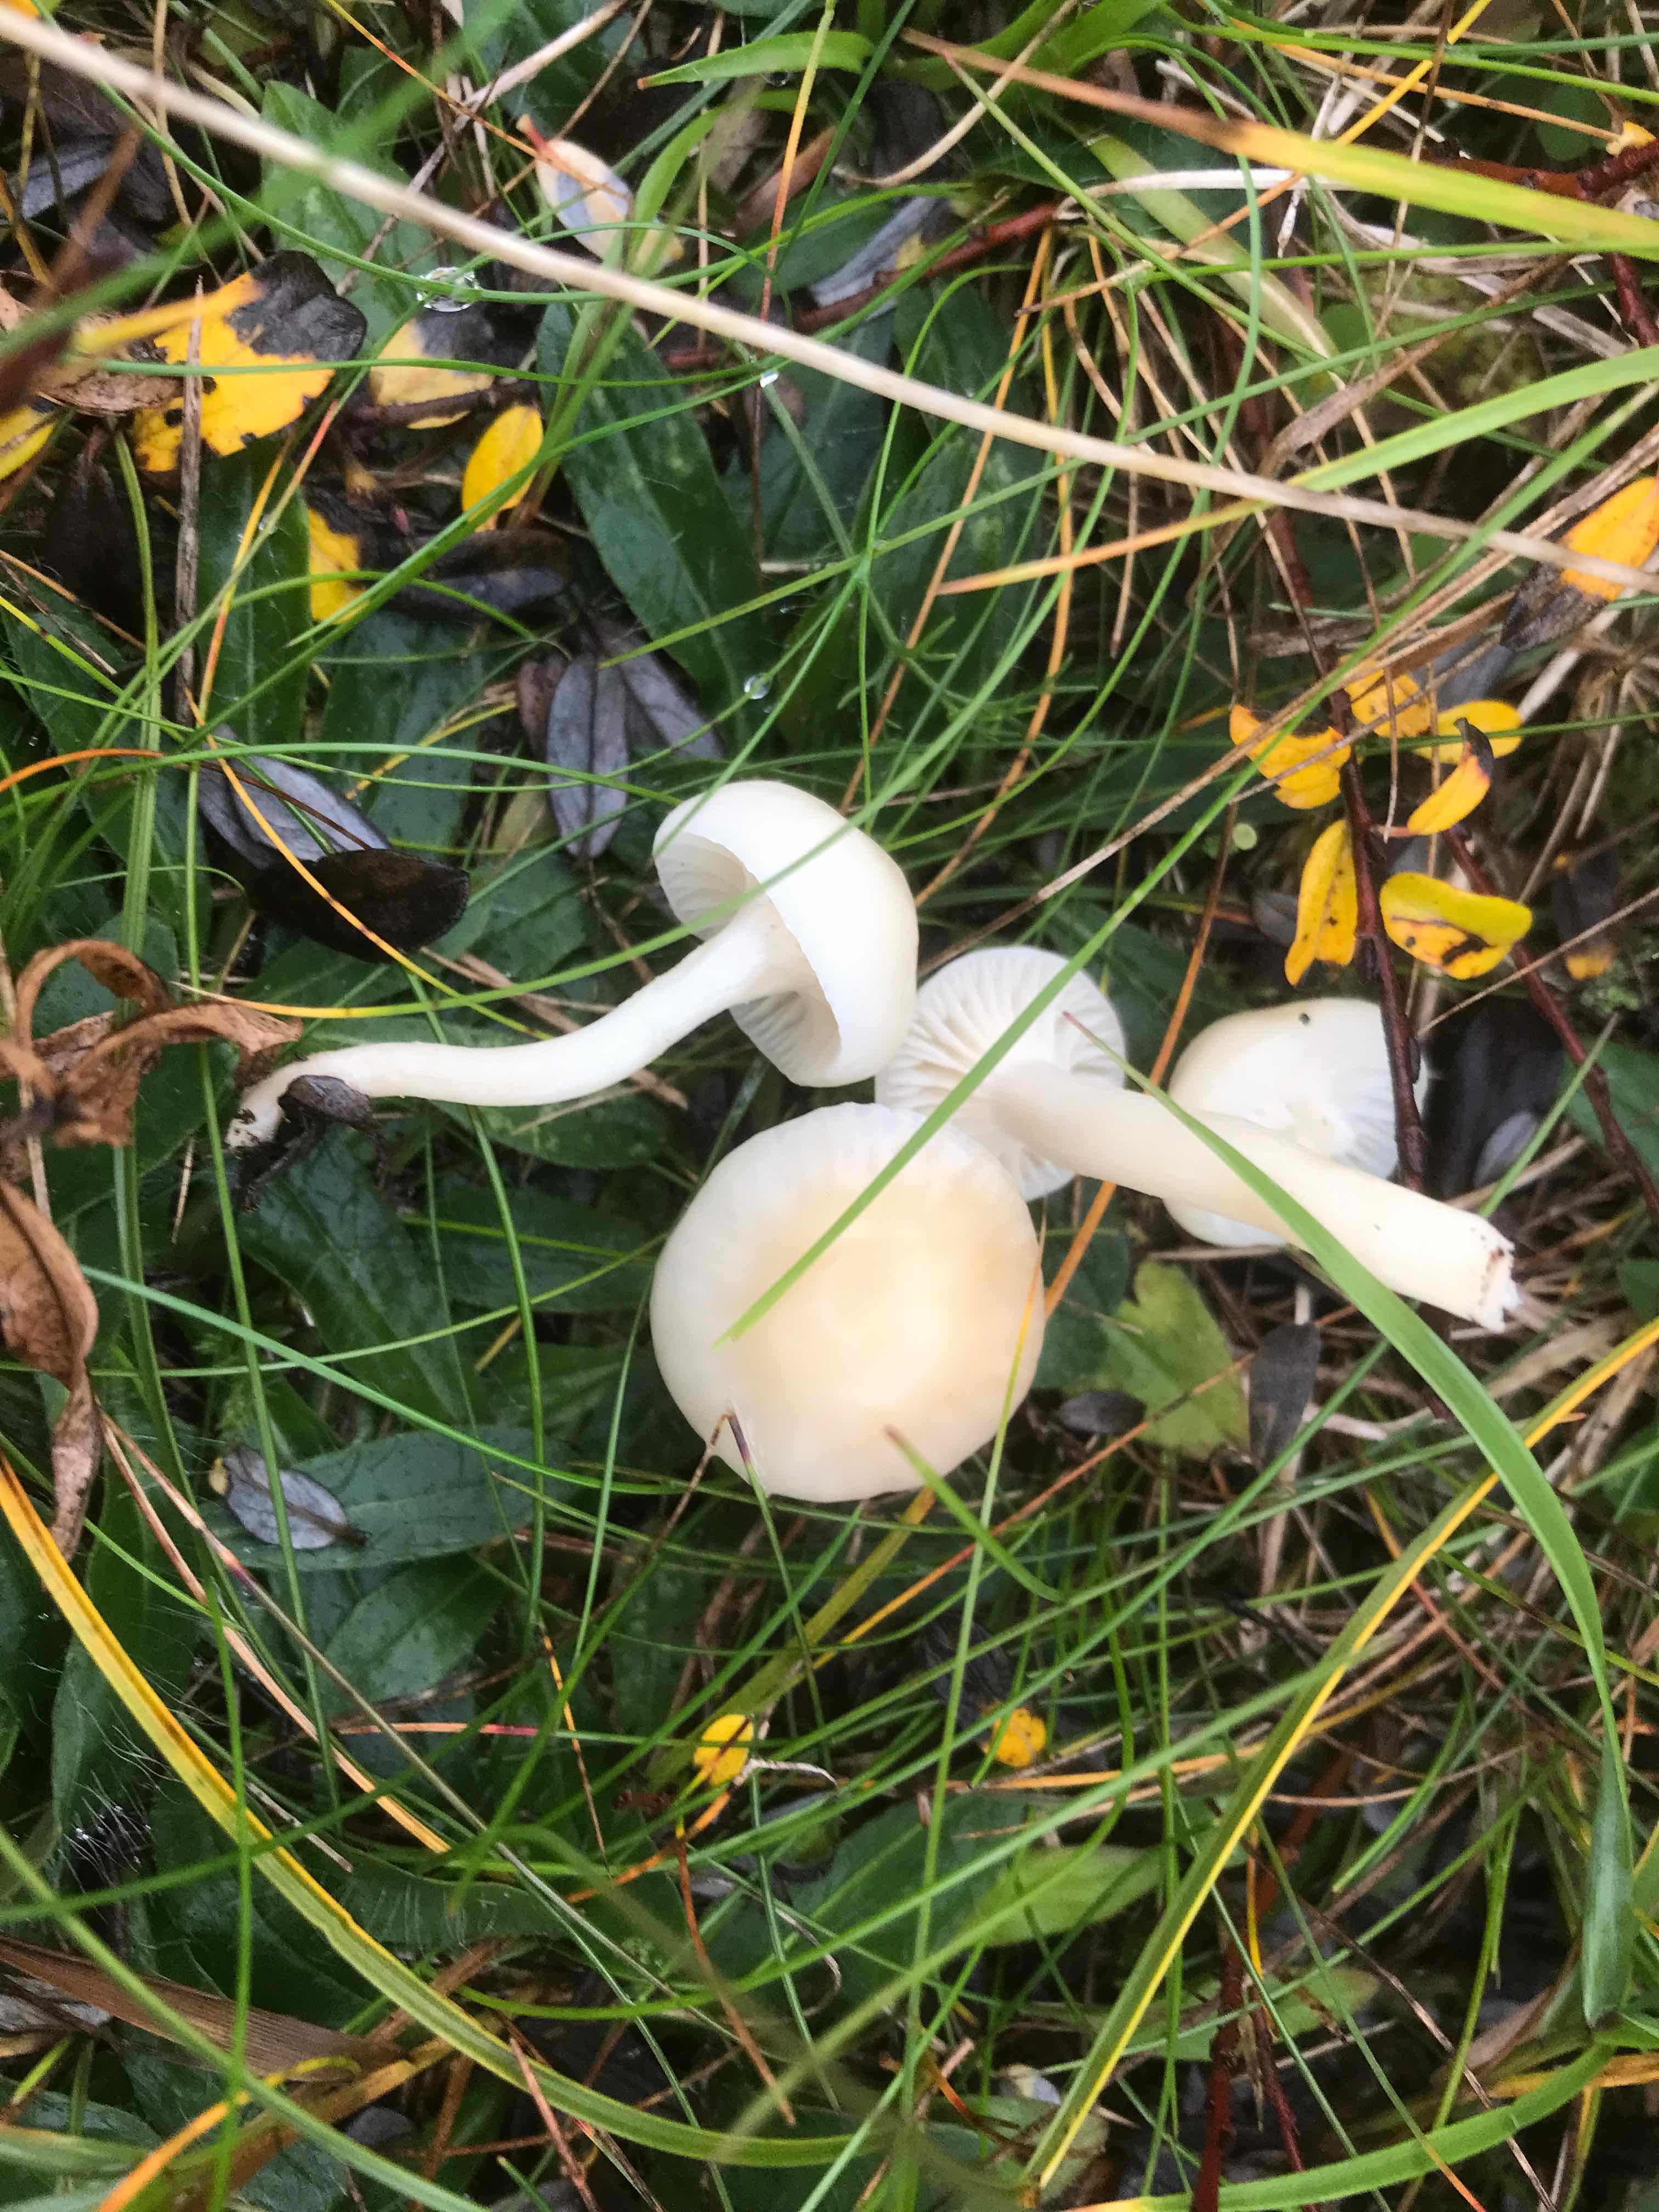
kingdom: Fungi
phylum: Basidiomycota
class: Agaricomycetes
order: Agaricales
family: Hygrophoraceae
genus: Cuphophyllus
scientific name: Cuphophyllus
